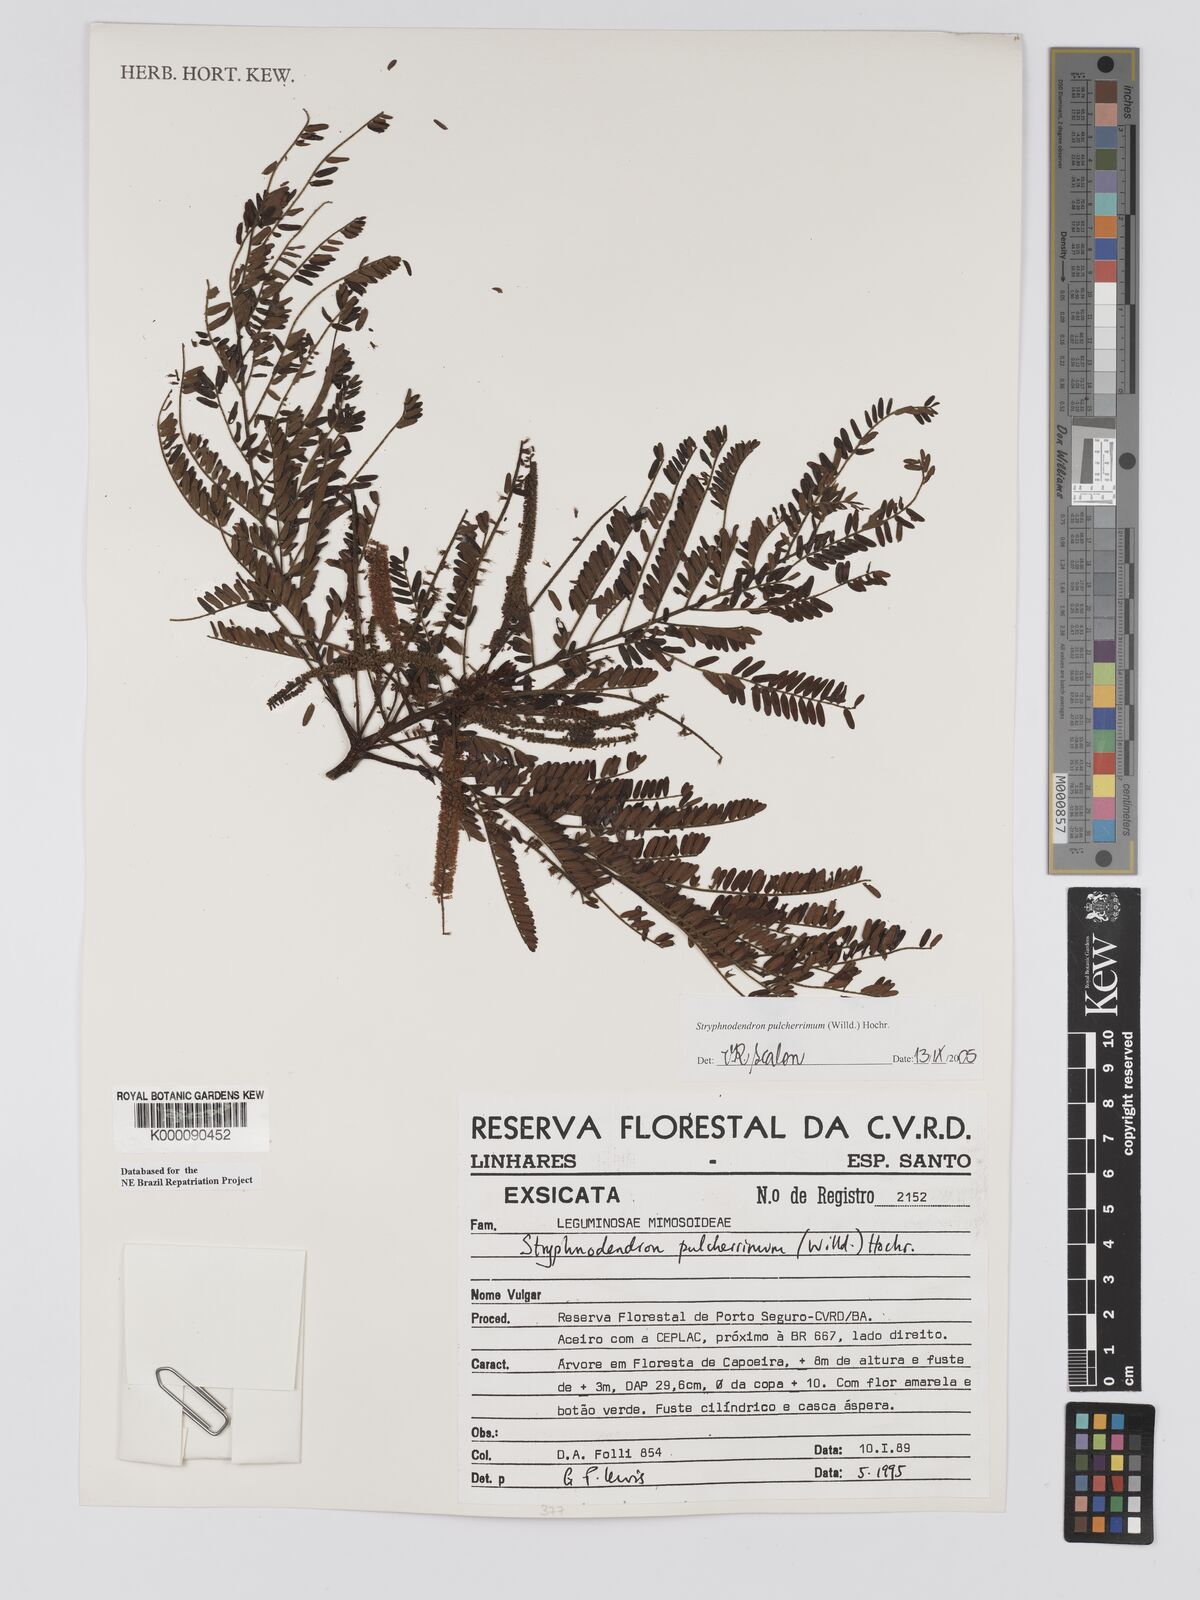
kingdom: Plantae
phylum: Tracheophyta
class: Magnoliopsida
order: Fabales
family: Fabaceae
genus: Stryphnodendron
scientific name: Stryphnodendron pulcherrimum
